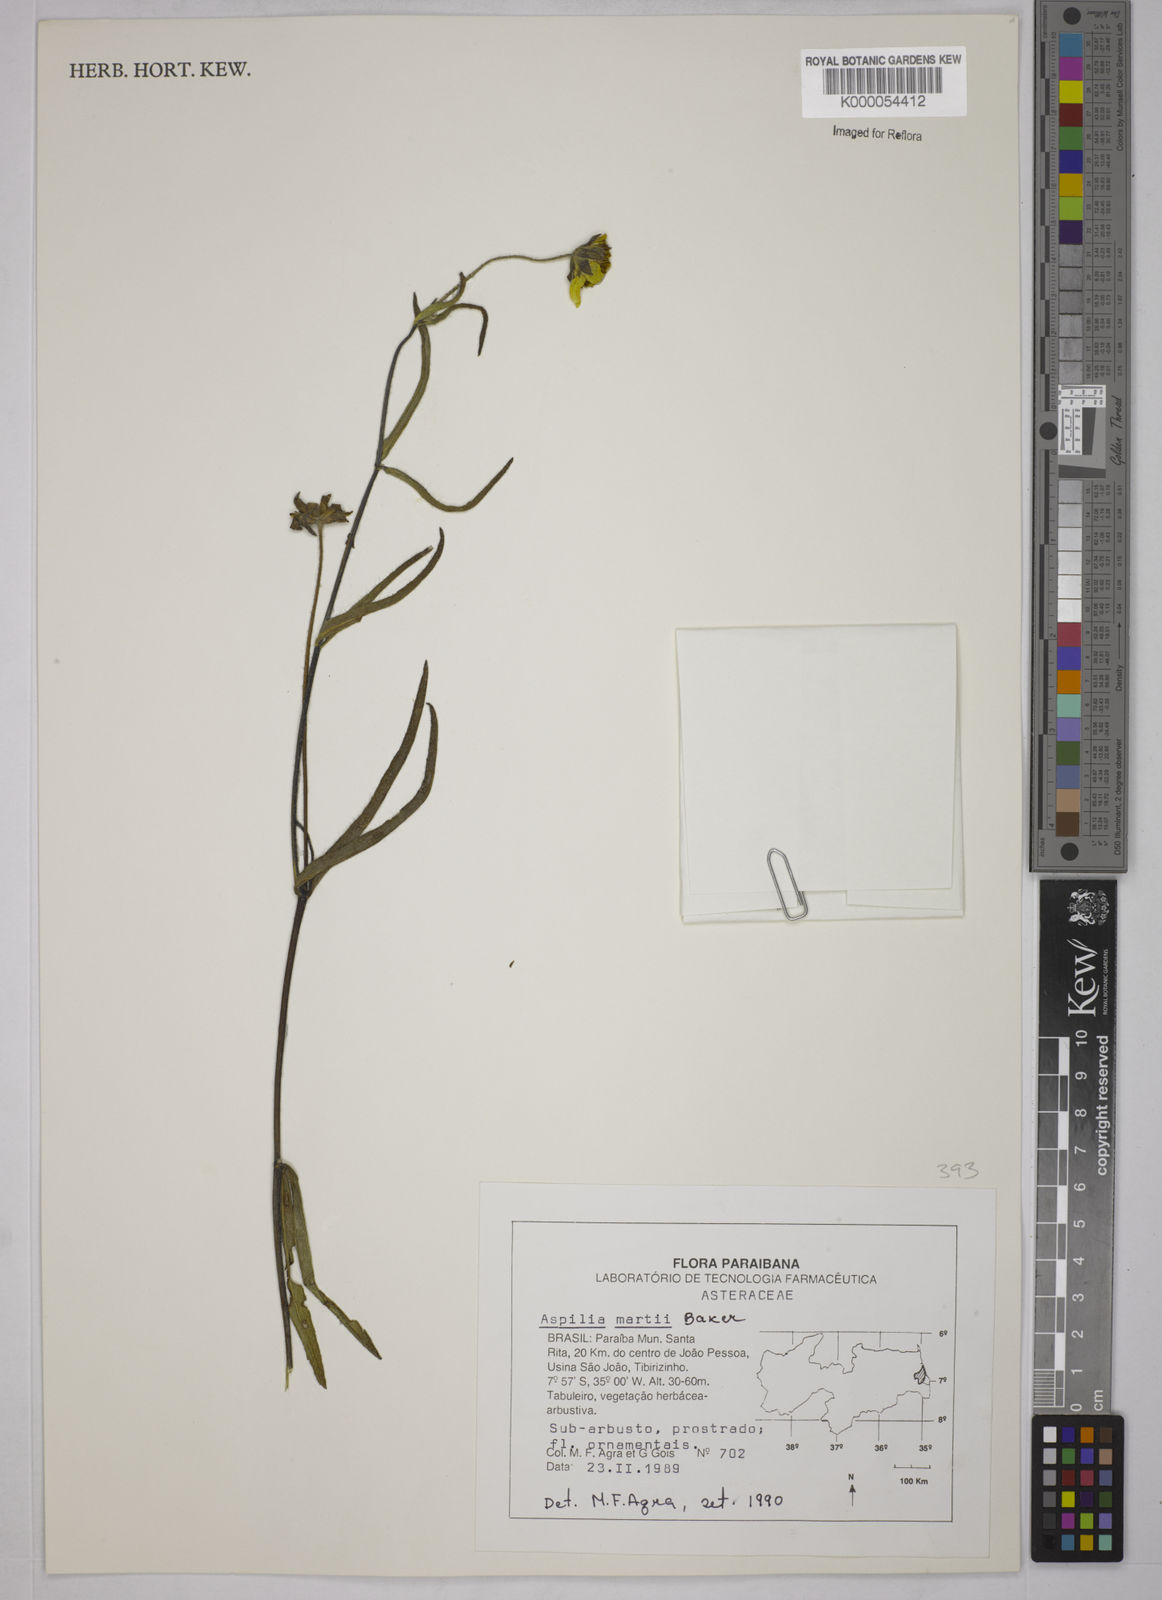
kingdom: Plantae
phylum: Tracheophyta
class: Magnoliopsida
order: Asterales
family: Asteraceae
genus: Wedelia
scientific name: Wedelia martii
